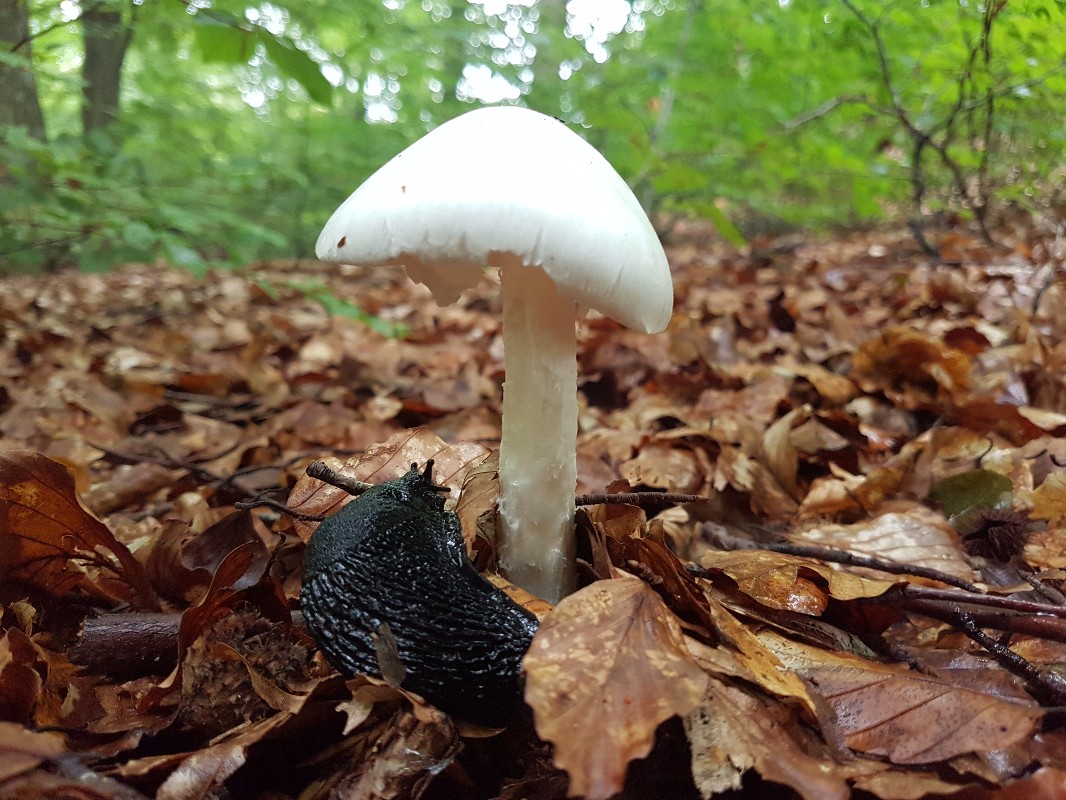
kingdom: Fungi
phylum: Basidiomycota
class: Agaricomycetes
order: Agaricales
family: Amanitaceae
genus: Amanita
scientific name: Amanita virosa
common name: snehvid fluesvamp
